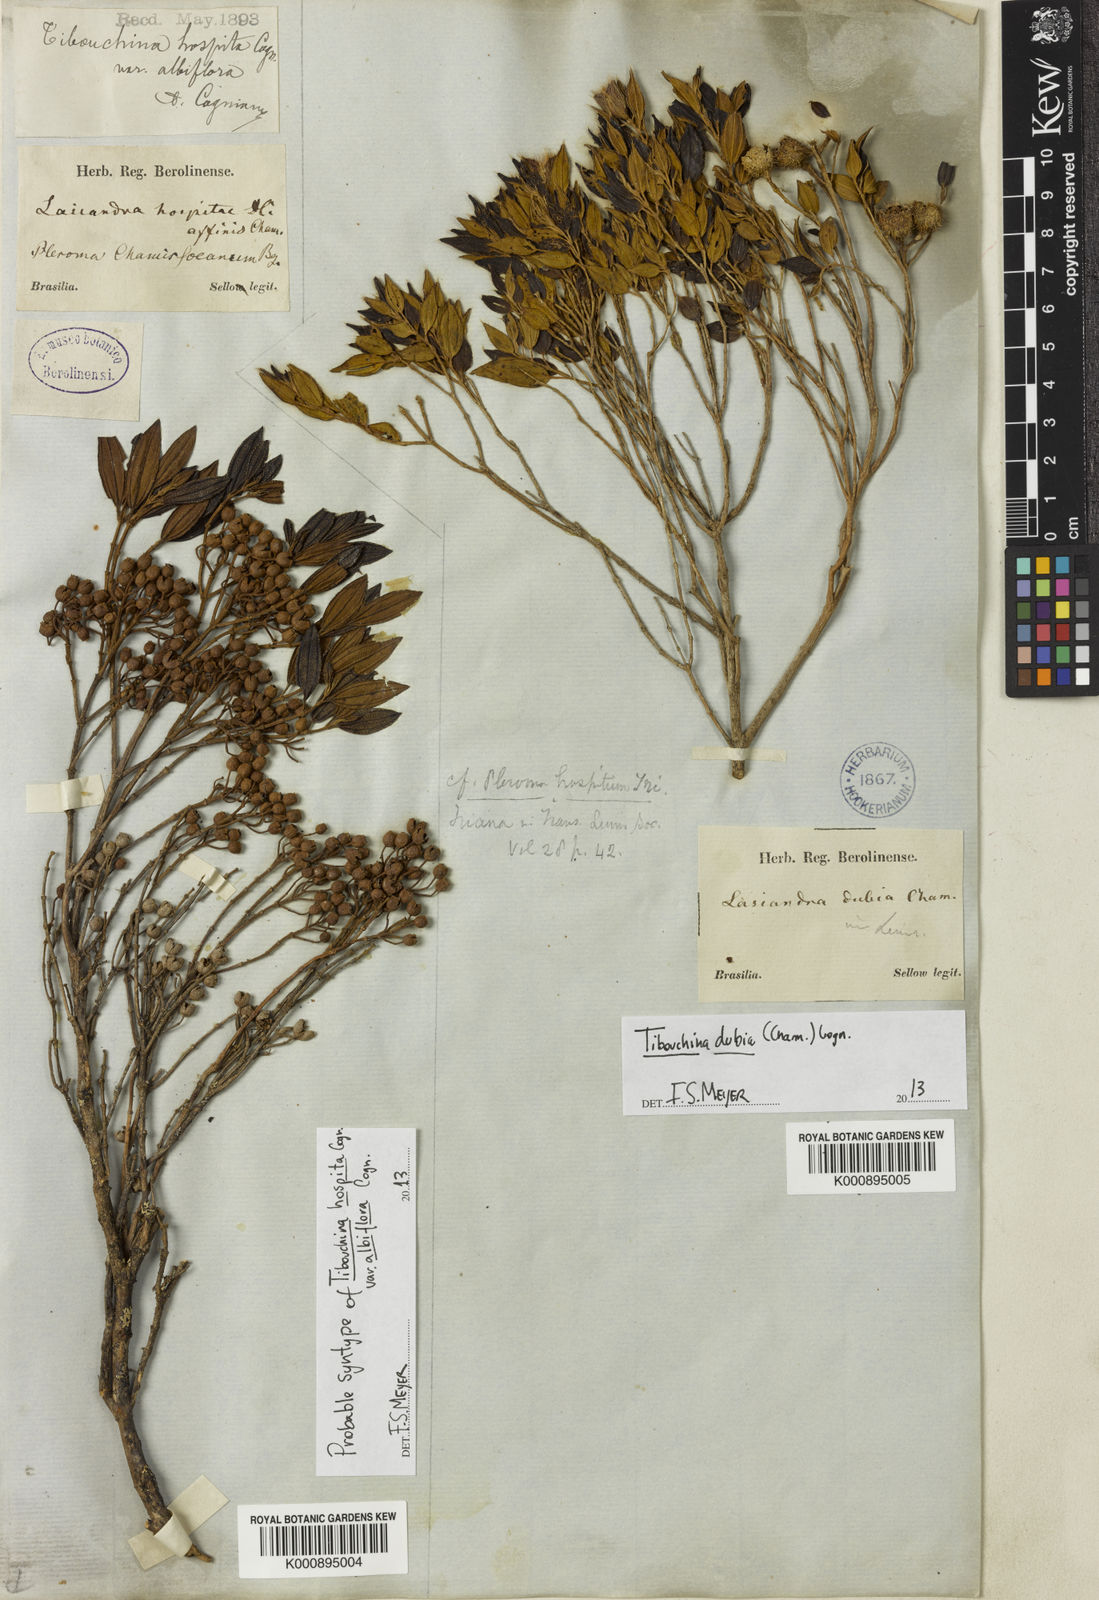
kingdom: Plantae
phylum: Tracheophyta
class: Magnoliopsida
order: Myrtales
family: Melastomataceae
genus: Pleroma
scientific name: Pleroma hospitum
